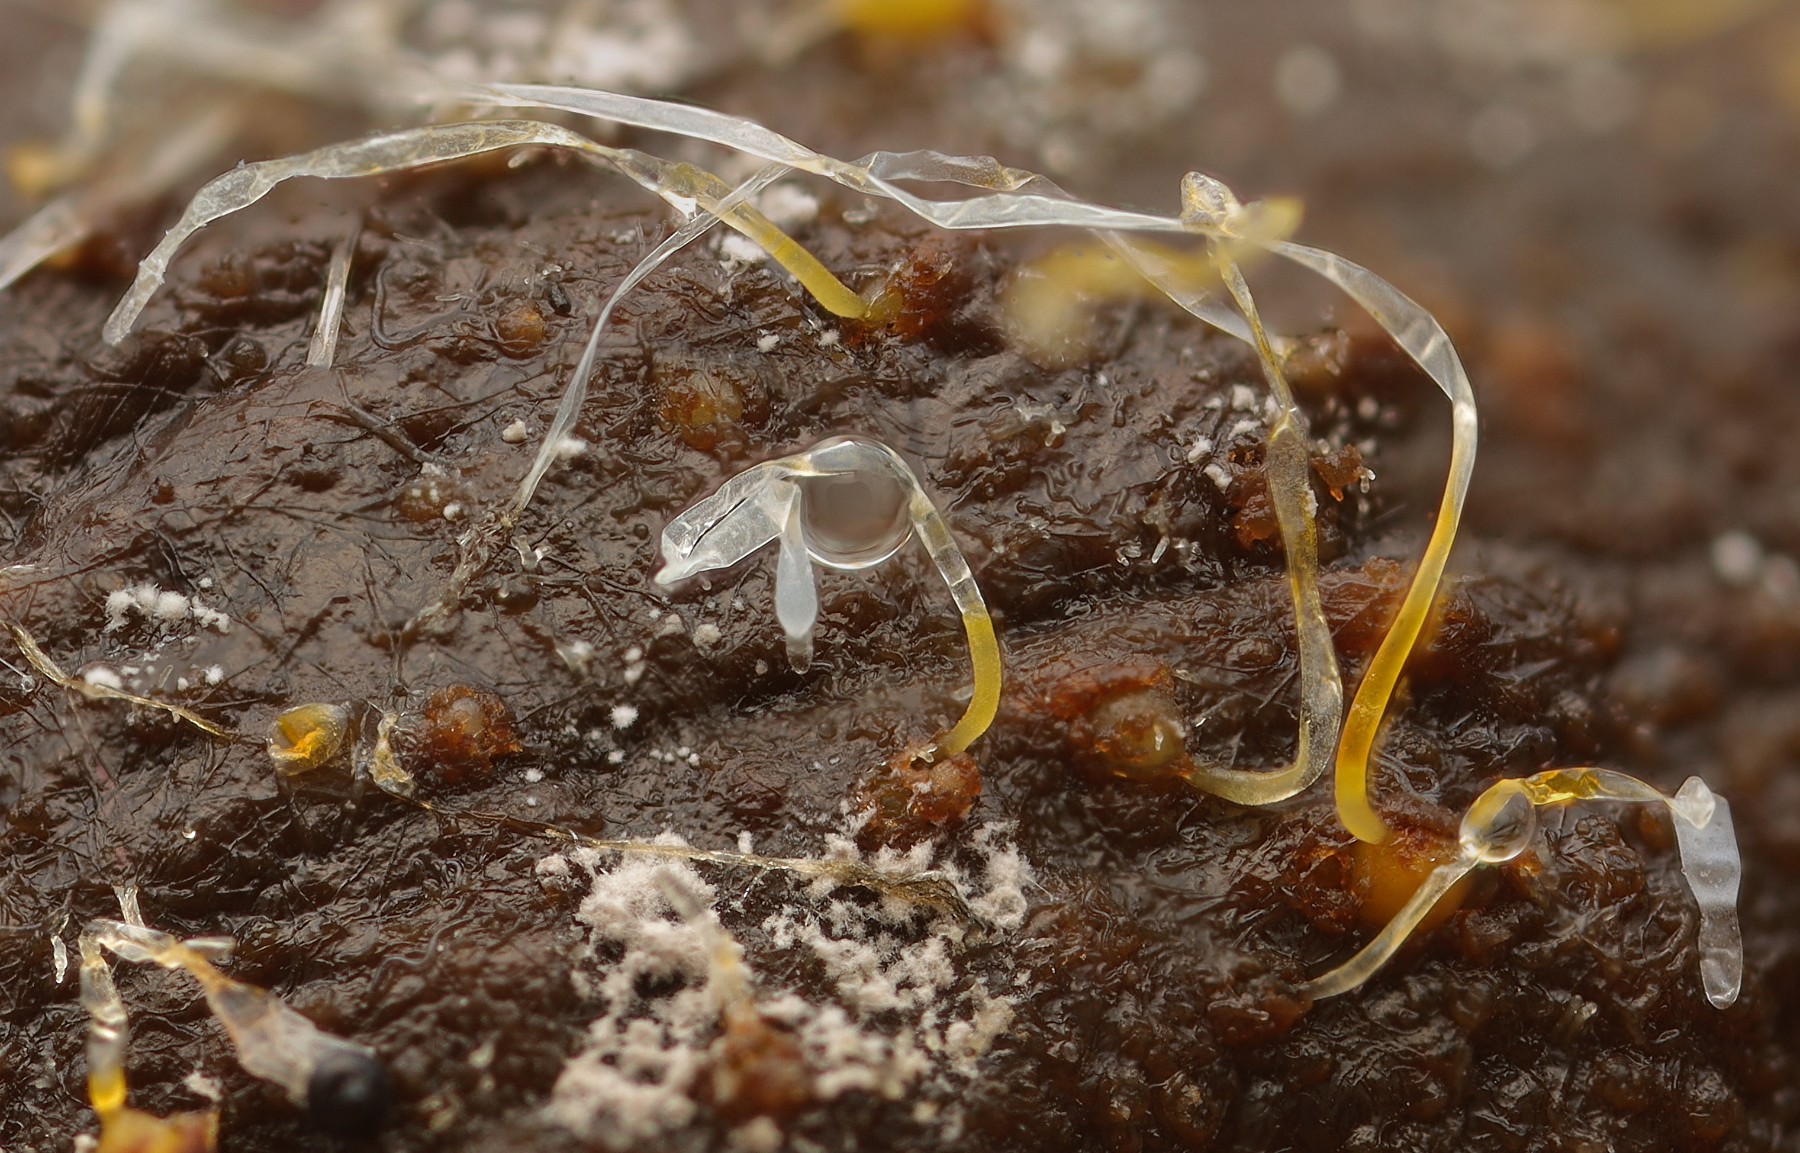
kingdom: Fungi
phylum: Mucoromycota
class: Mucoromycetes
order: Mucorales
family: Pilobolaceae
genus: Pilobolus
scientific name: Pilobolus
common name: boldkaster
